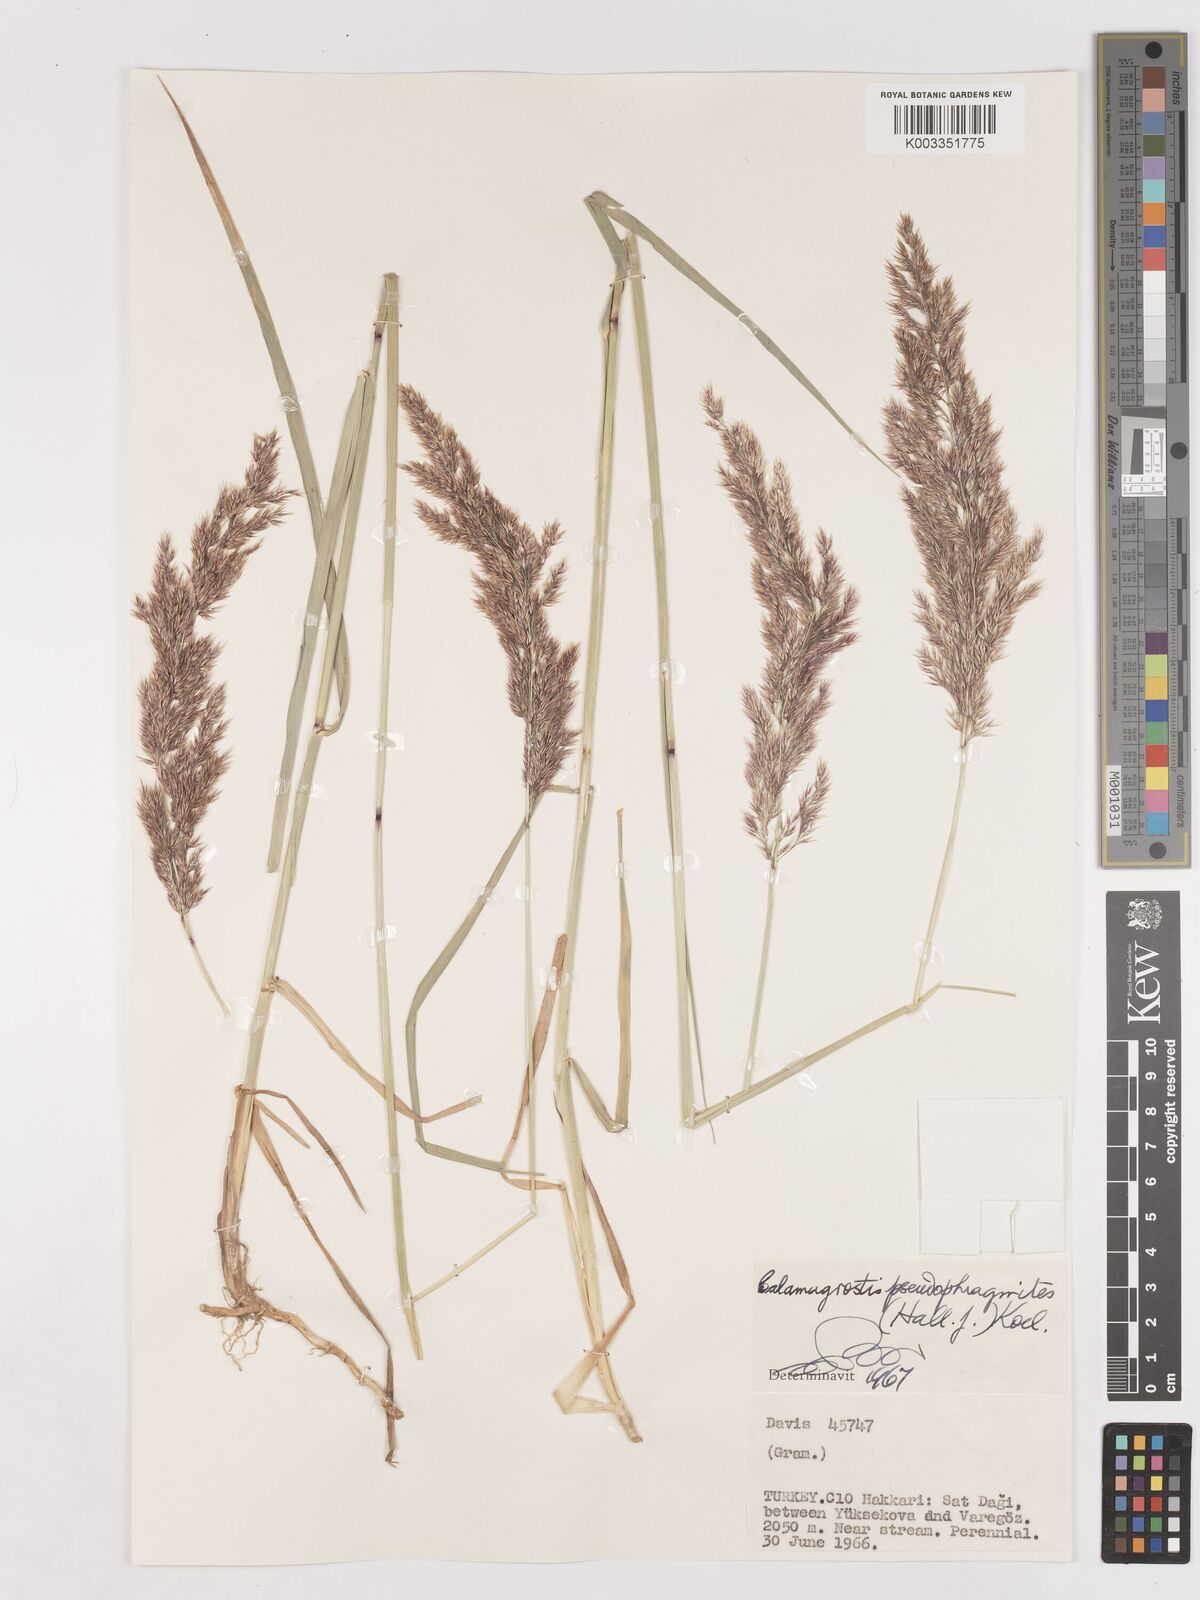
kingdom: Plantae
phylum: Tracheophyta
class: Liliopsida
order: Poales
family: Poaceae
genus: Calamagrostis
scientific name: Calamagrostis pseudophragmites
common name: Coastal small-reed
